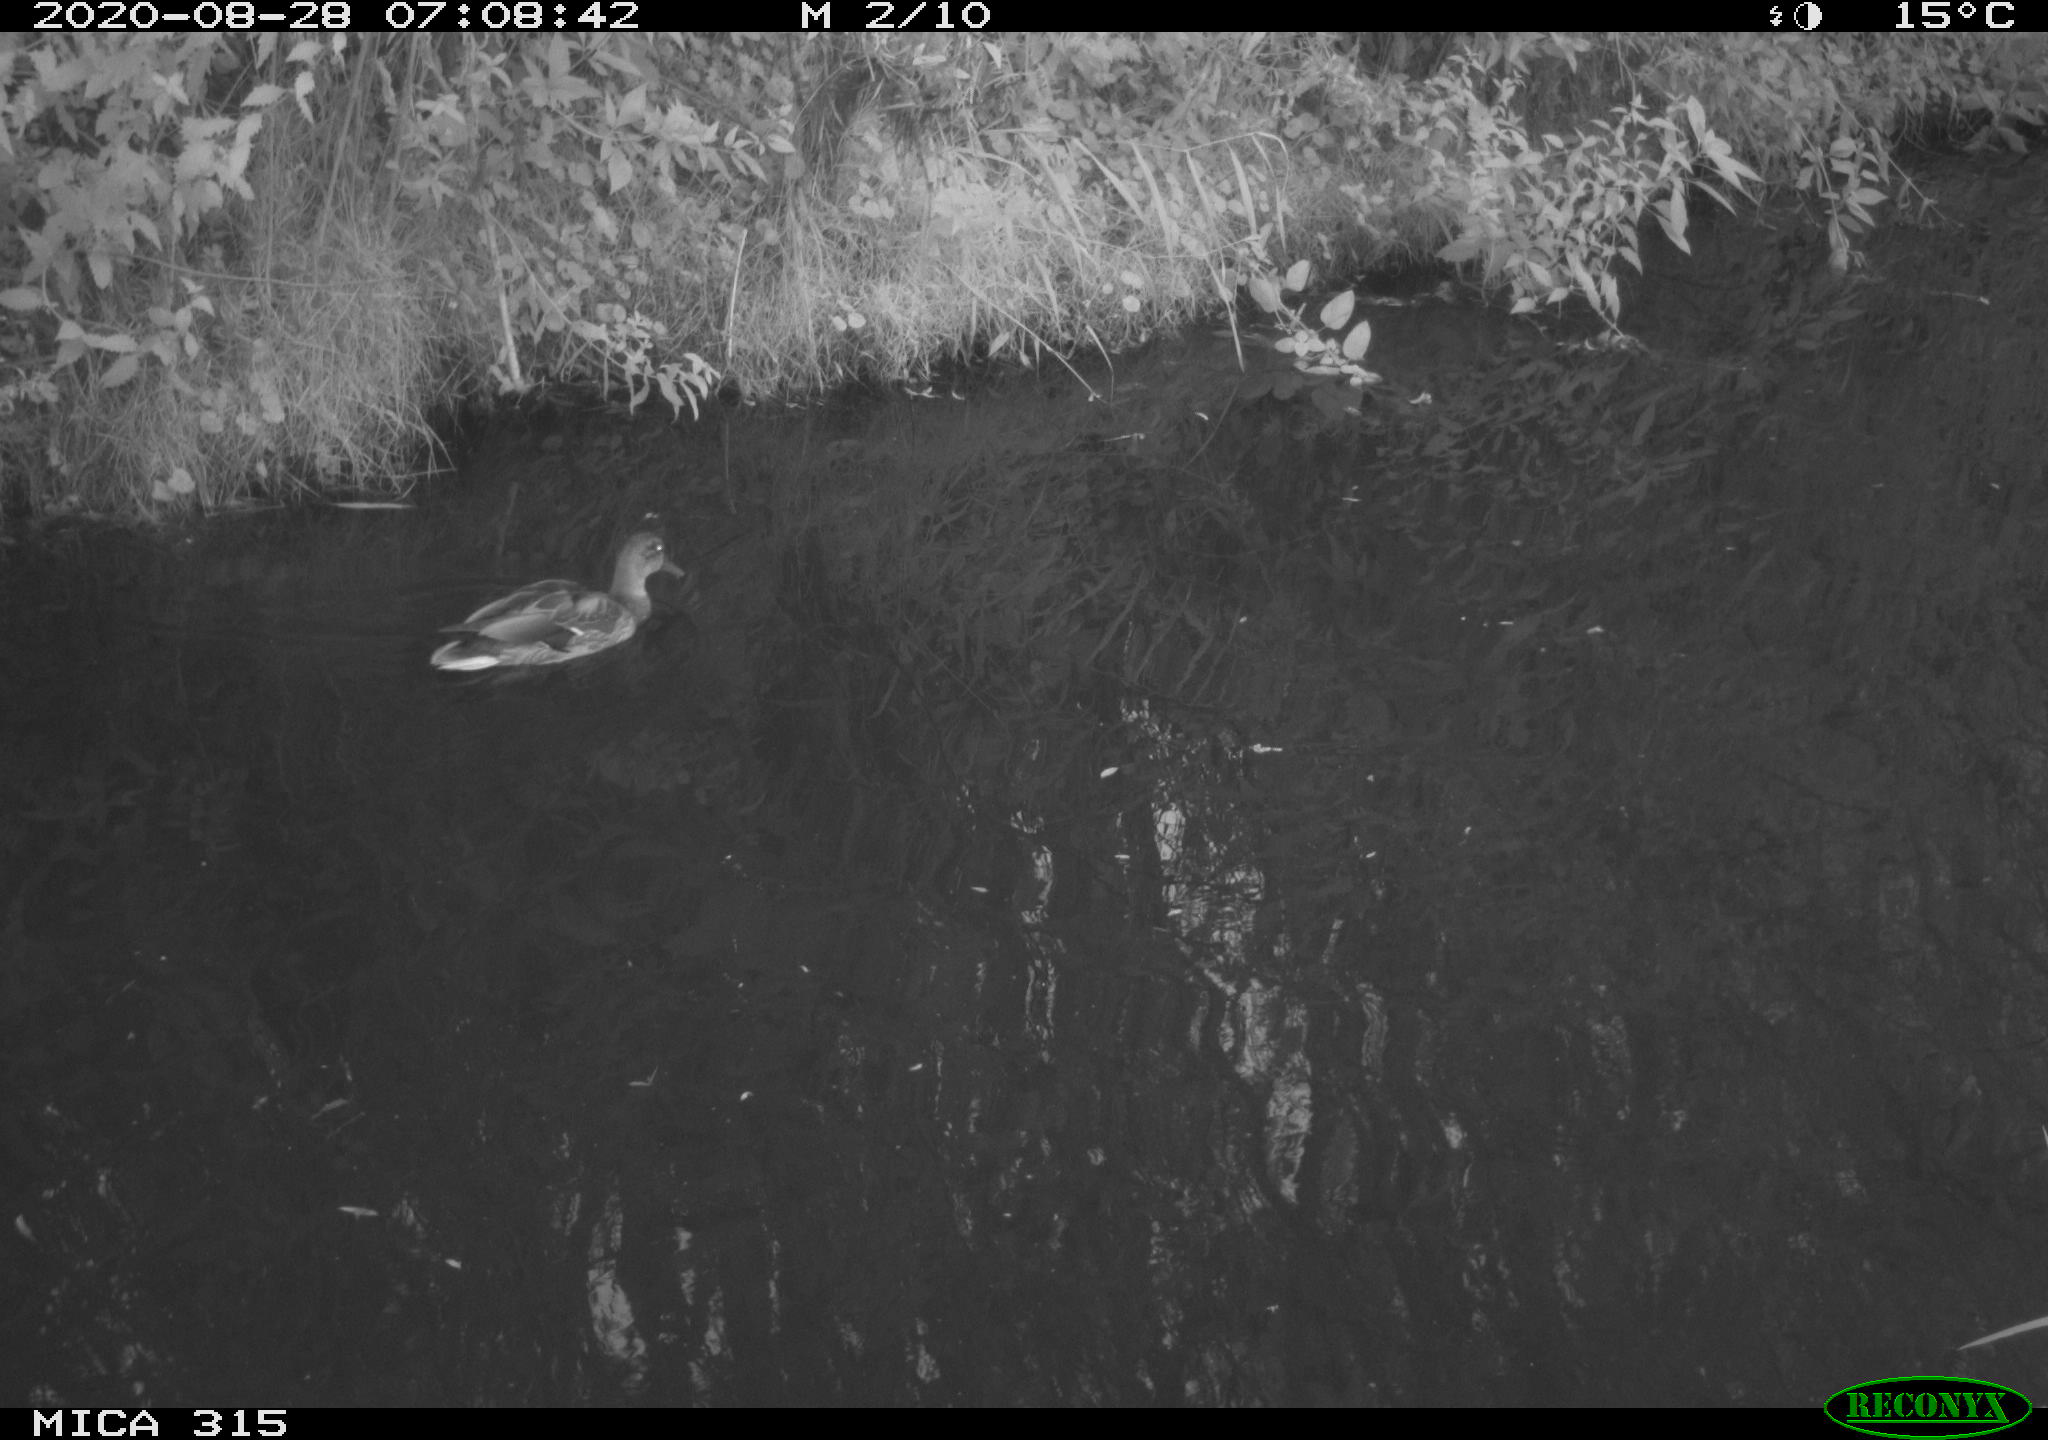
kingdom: Animalia
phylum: Chordata
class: Aves
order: Anseriformes
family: Anatidae
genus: Anas
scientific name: Anas platyrhynchos
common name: Mallard
